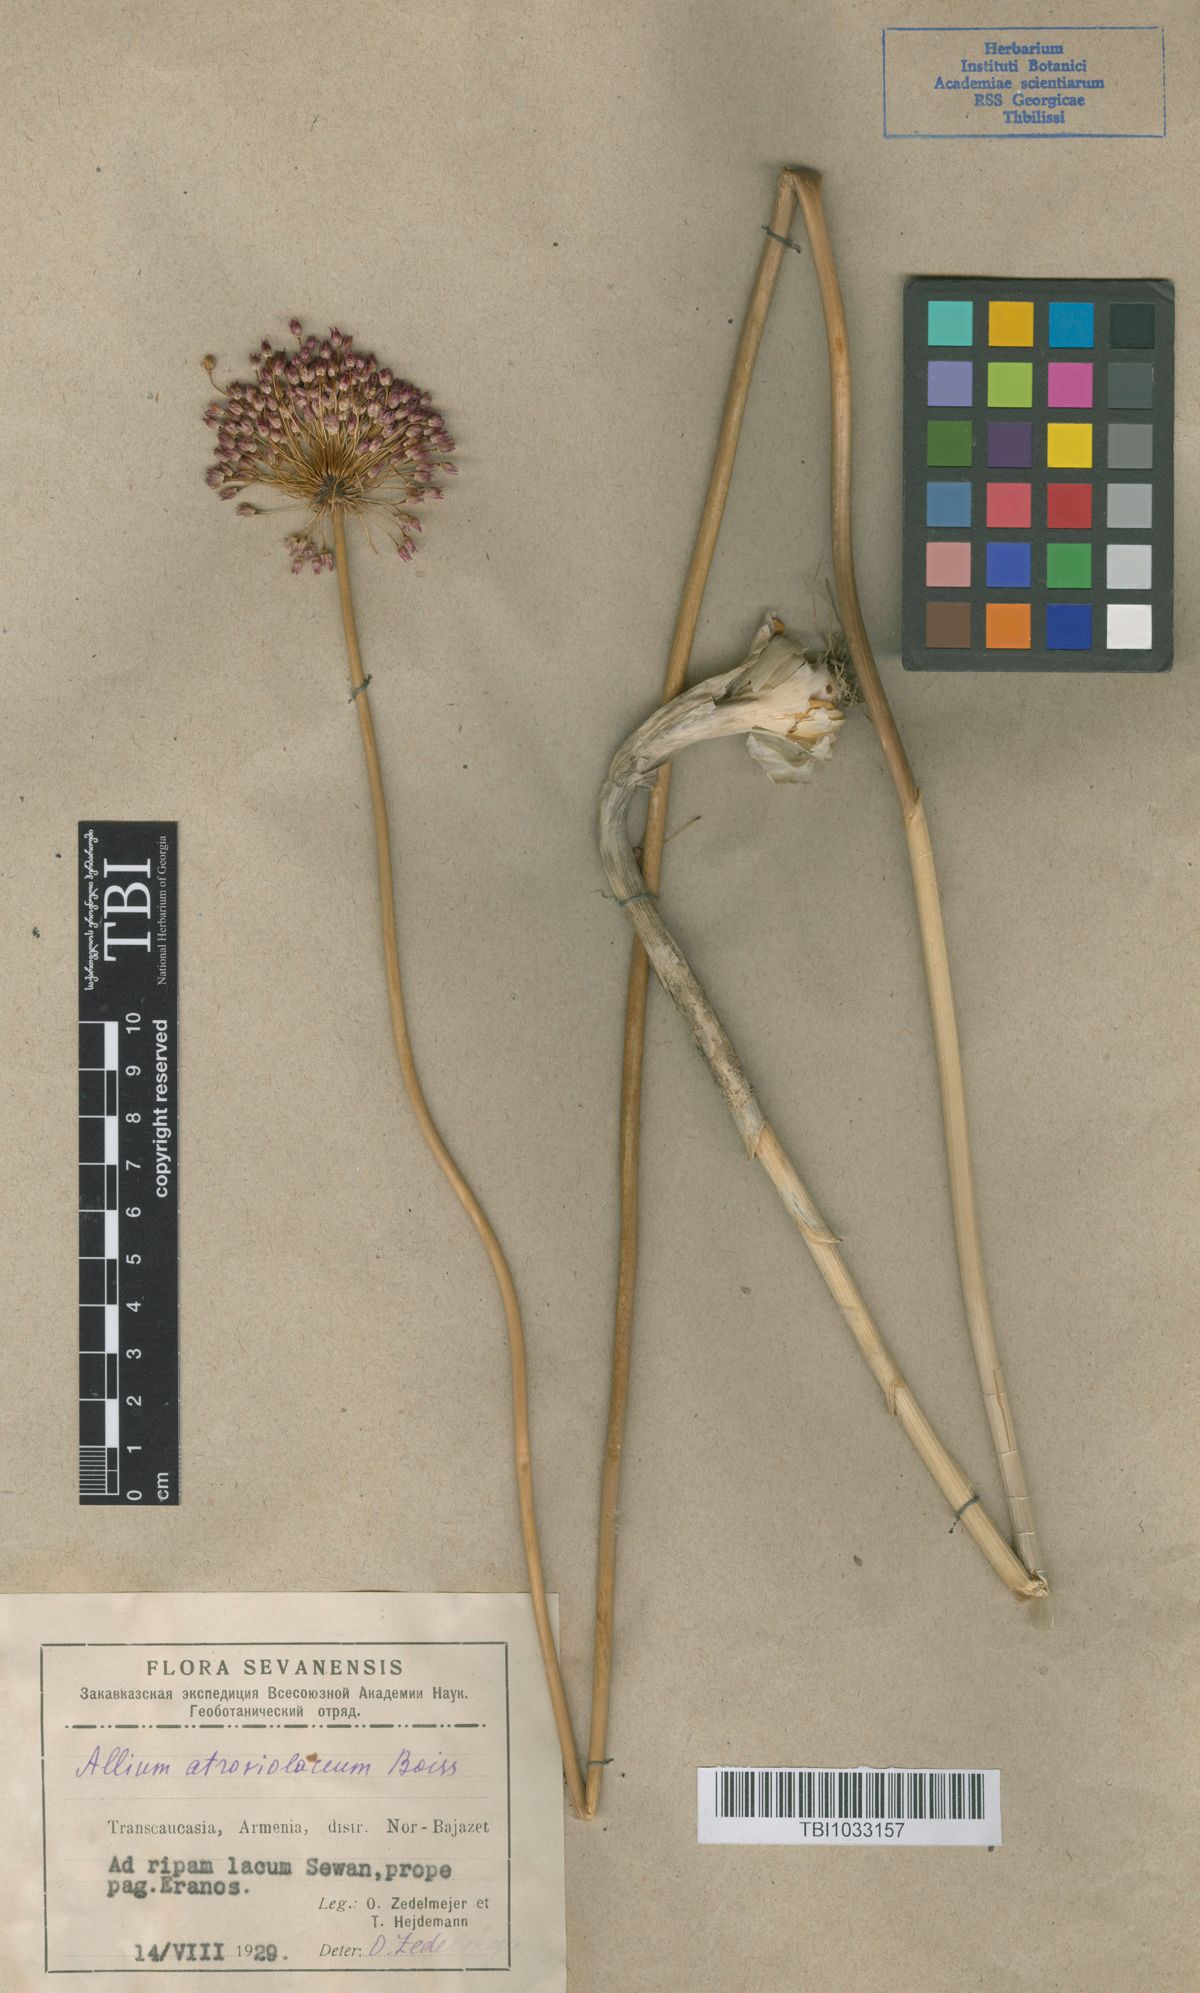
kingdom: Plantae
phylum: Tracheophyta
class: Liliopsida
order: Asparagales
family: Amaryllidaceae
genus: Allium
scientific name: Allium atroviolaceum
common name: Broadleaf wild leek
